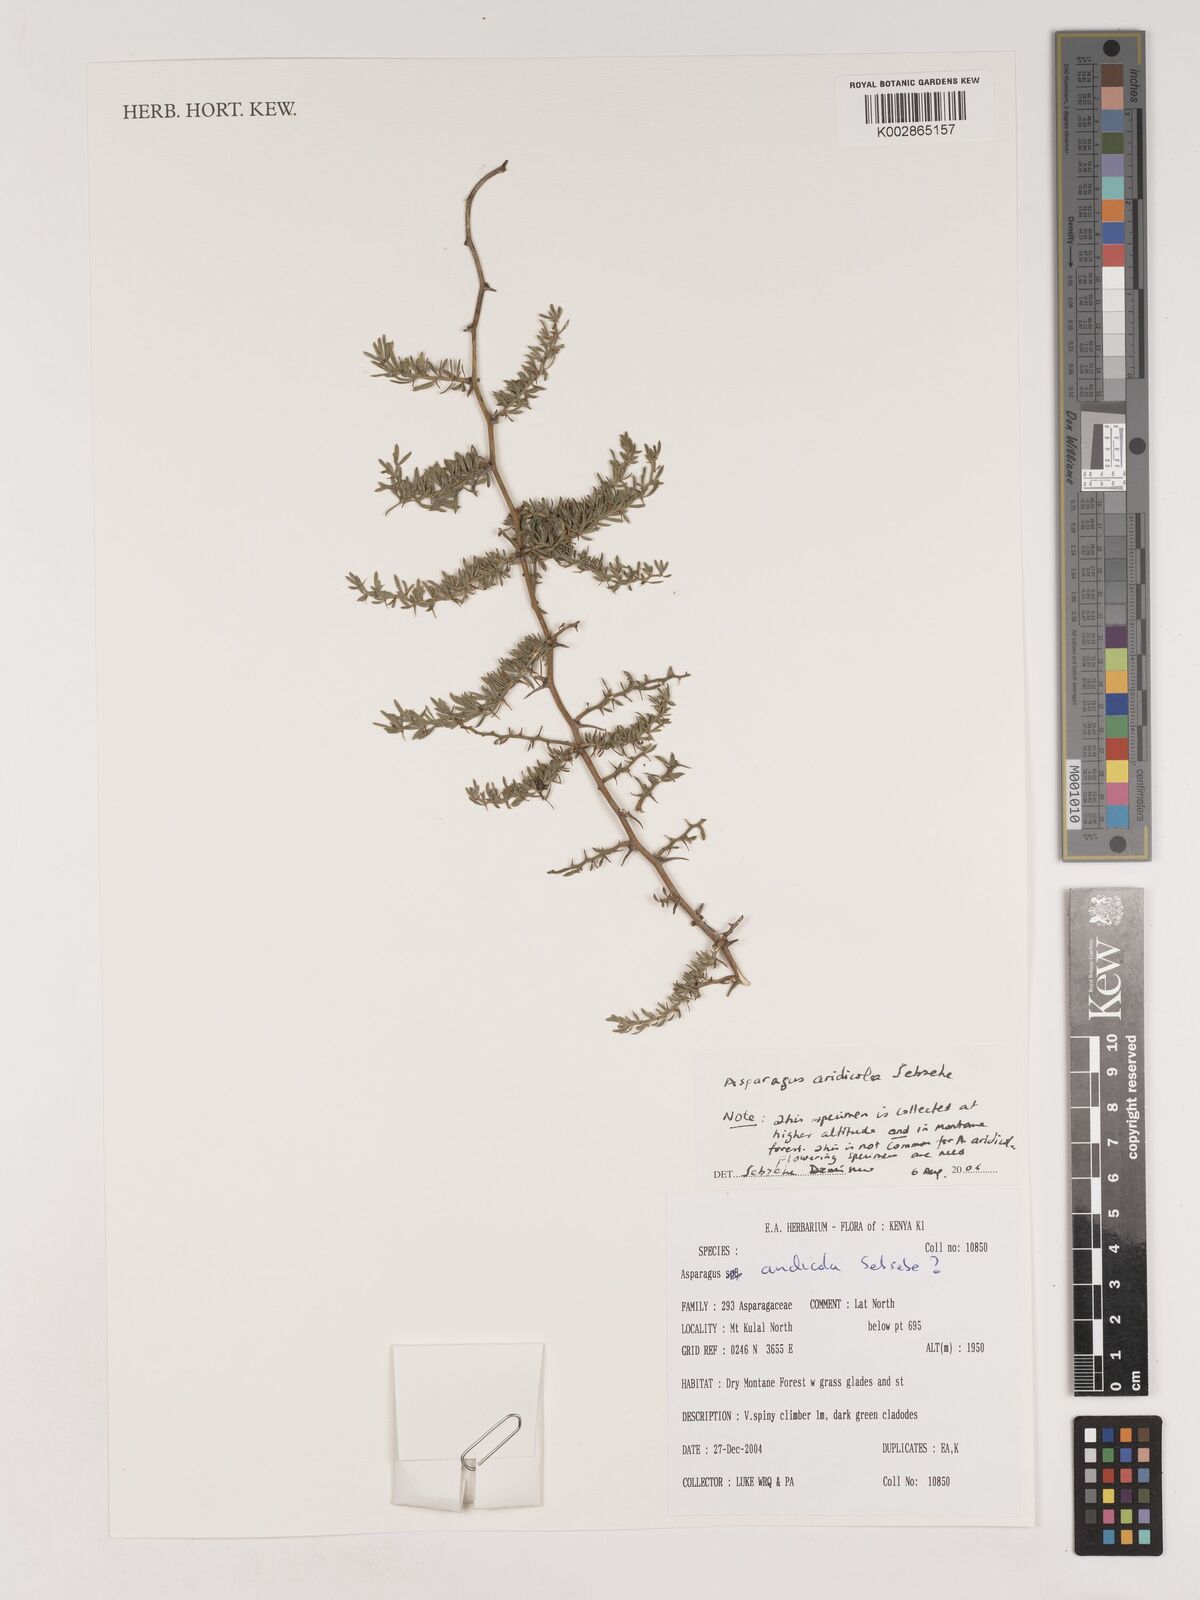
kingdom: Plantae
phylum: Tracheophyta
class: Liliopsida
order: Asparagales
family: Asparagaceae
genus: Asparagus
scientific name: Asparagus aridicola
